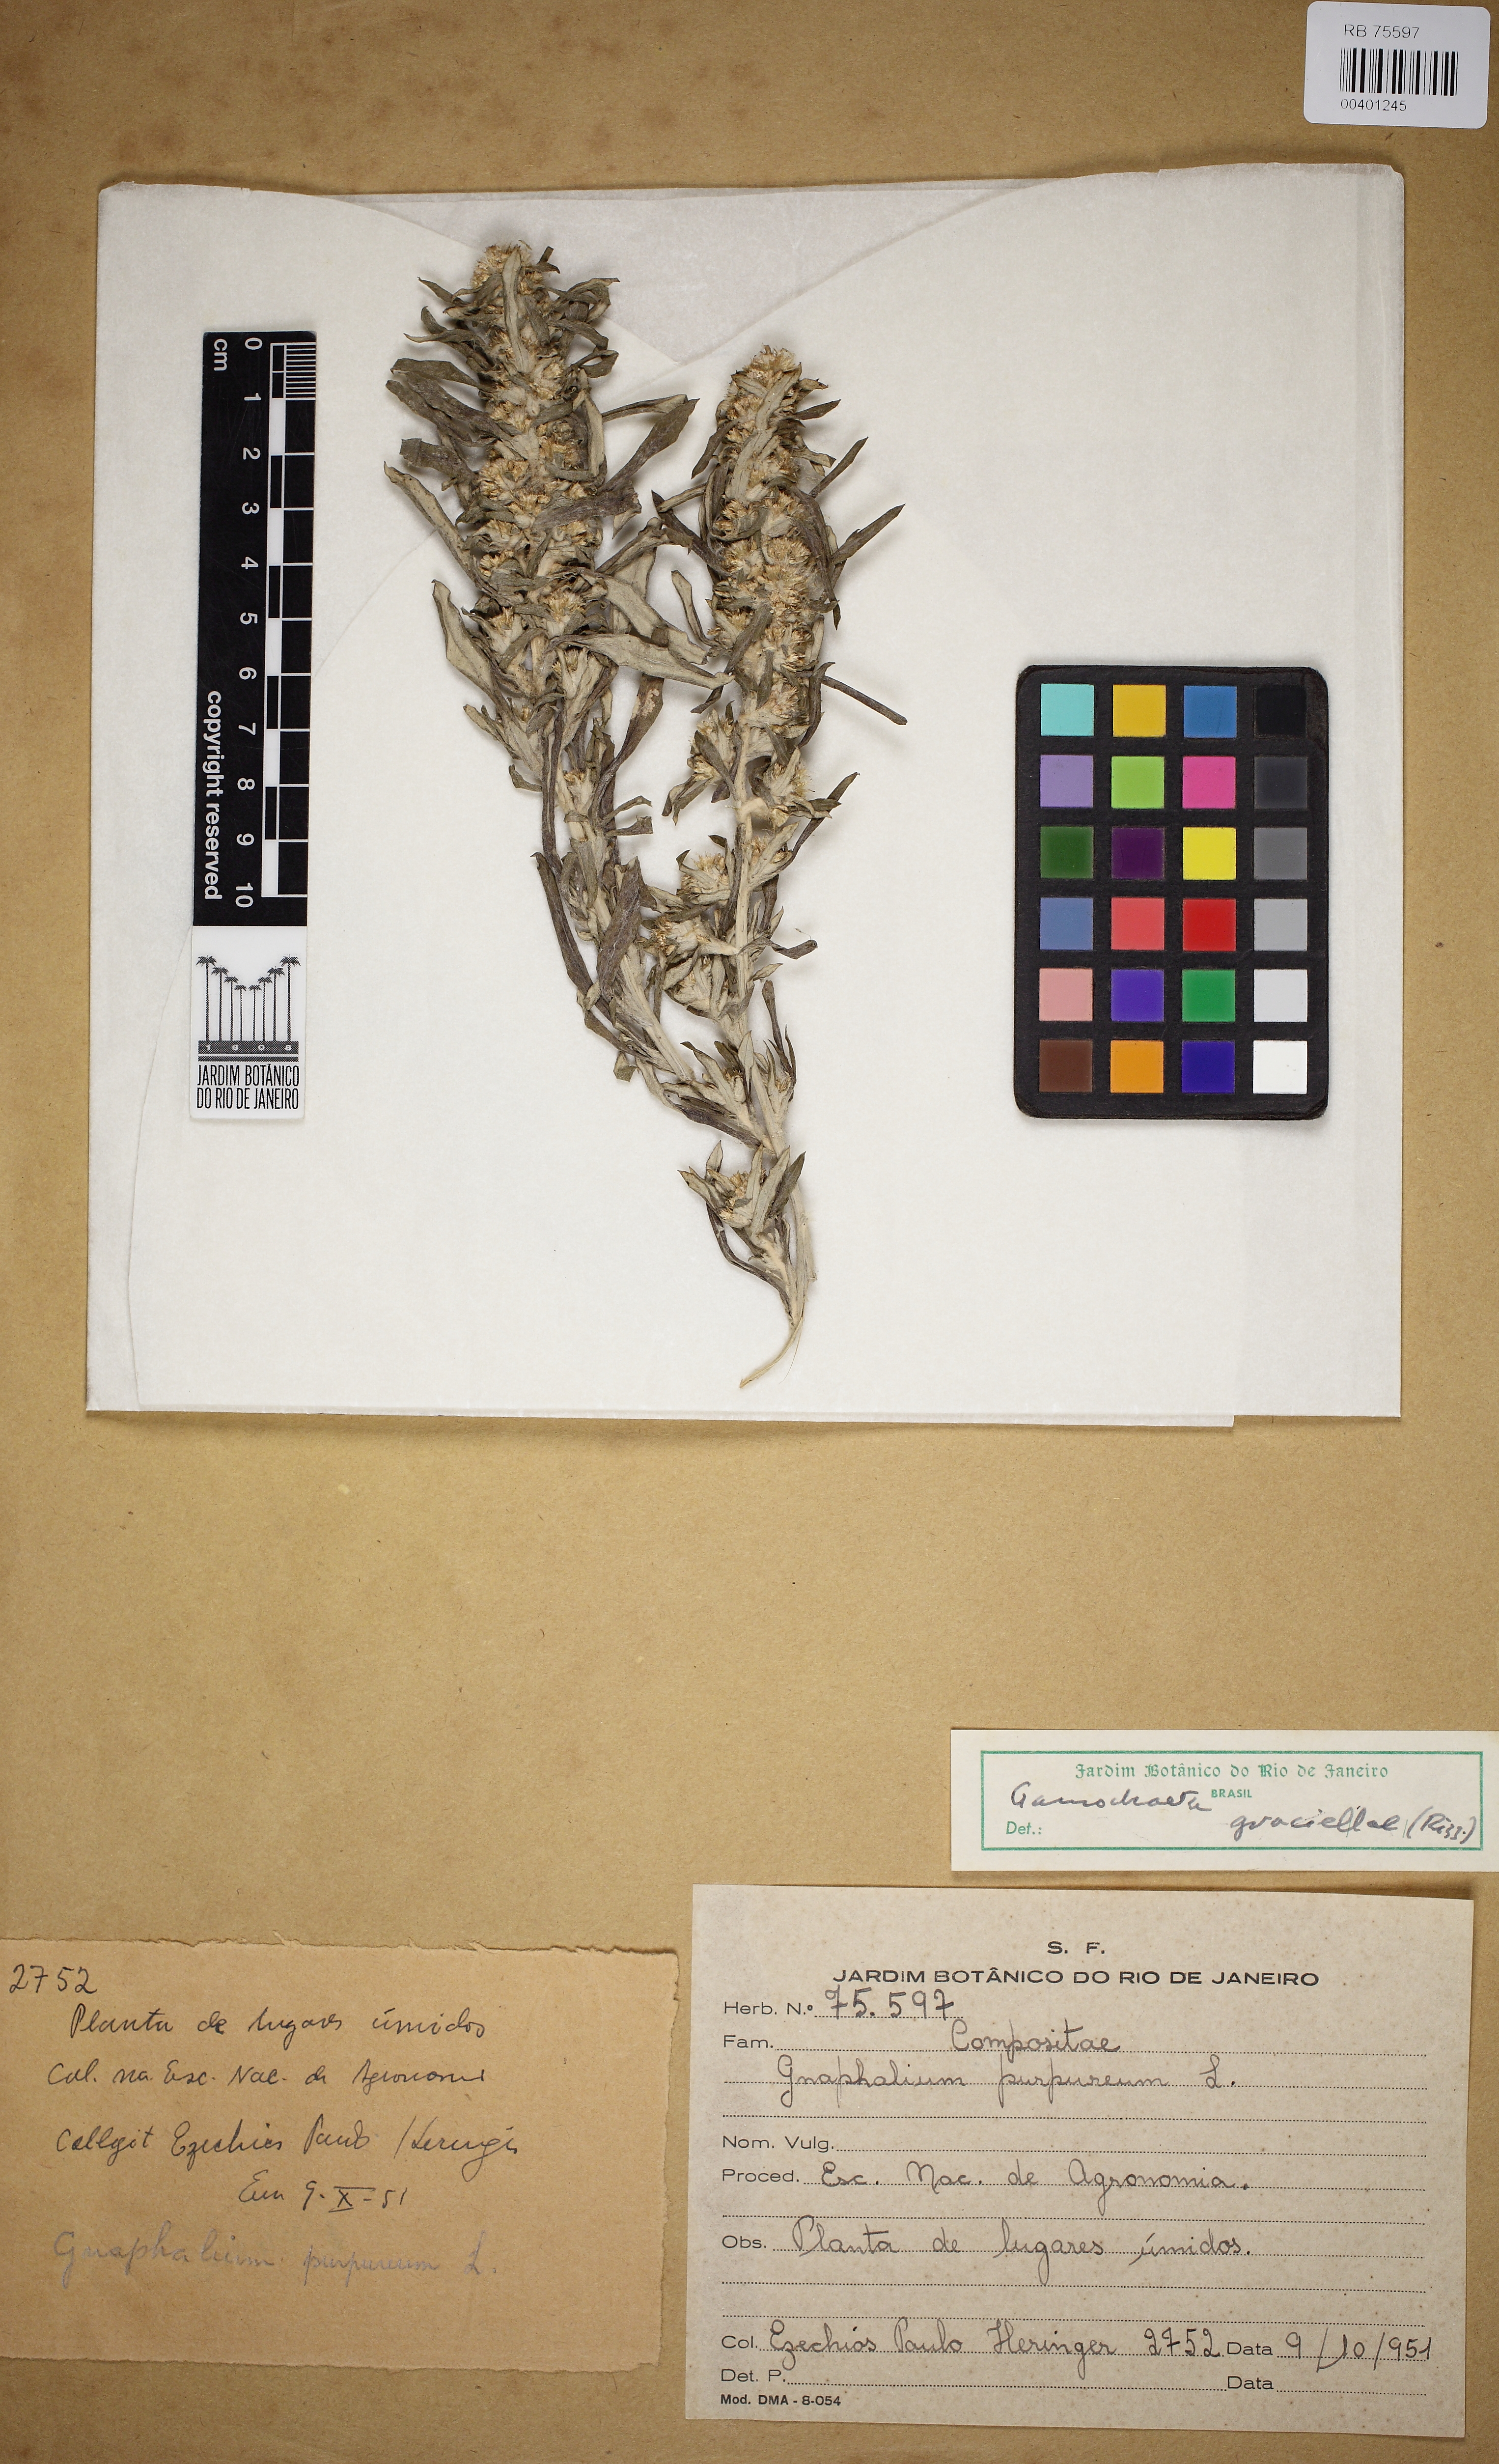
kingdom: Plantae
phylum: Tracheophyta
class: Magnoliopsida
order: Asterales
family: Asteraceae
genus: Pseudognaphalium
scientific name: Pseudognaphalium
